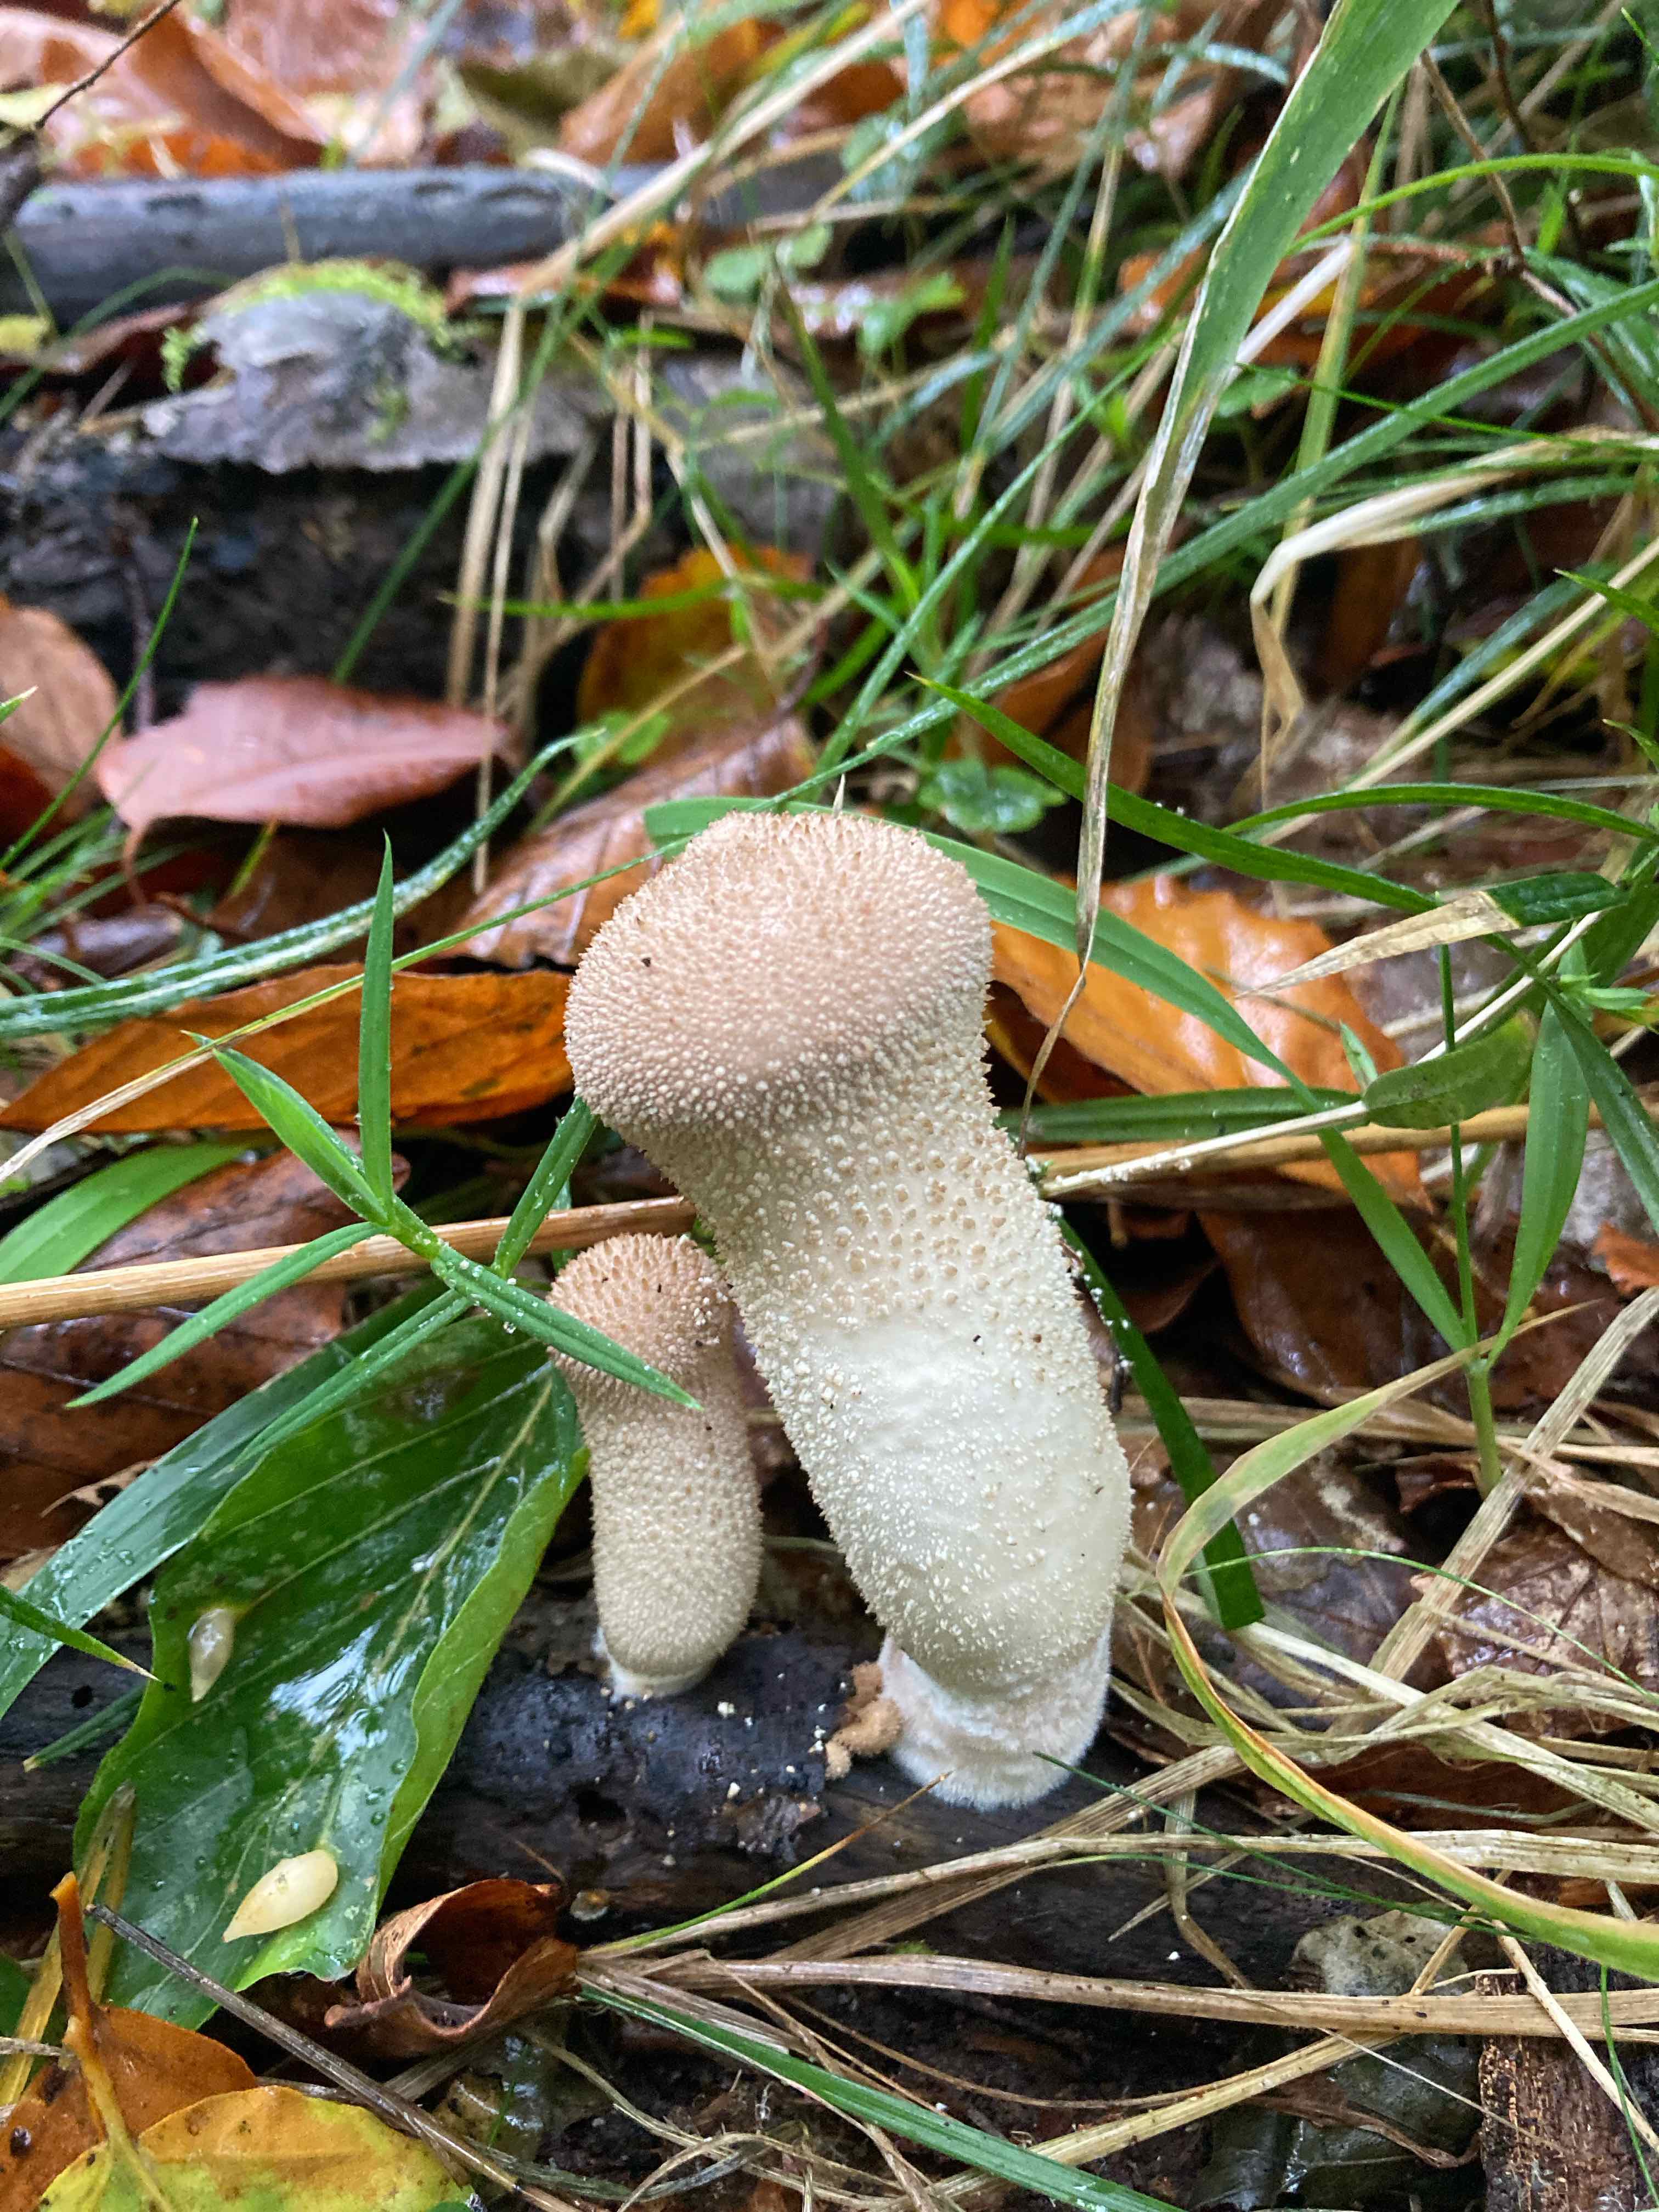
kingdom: Fungi
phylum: Basidiomycota
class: Agaricomycetes
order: Agaricales
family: Lycoperdaceae
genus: Lycoperdon
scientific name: Lycoperdon perlatum
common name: krystal-støvbold
